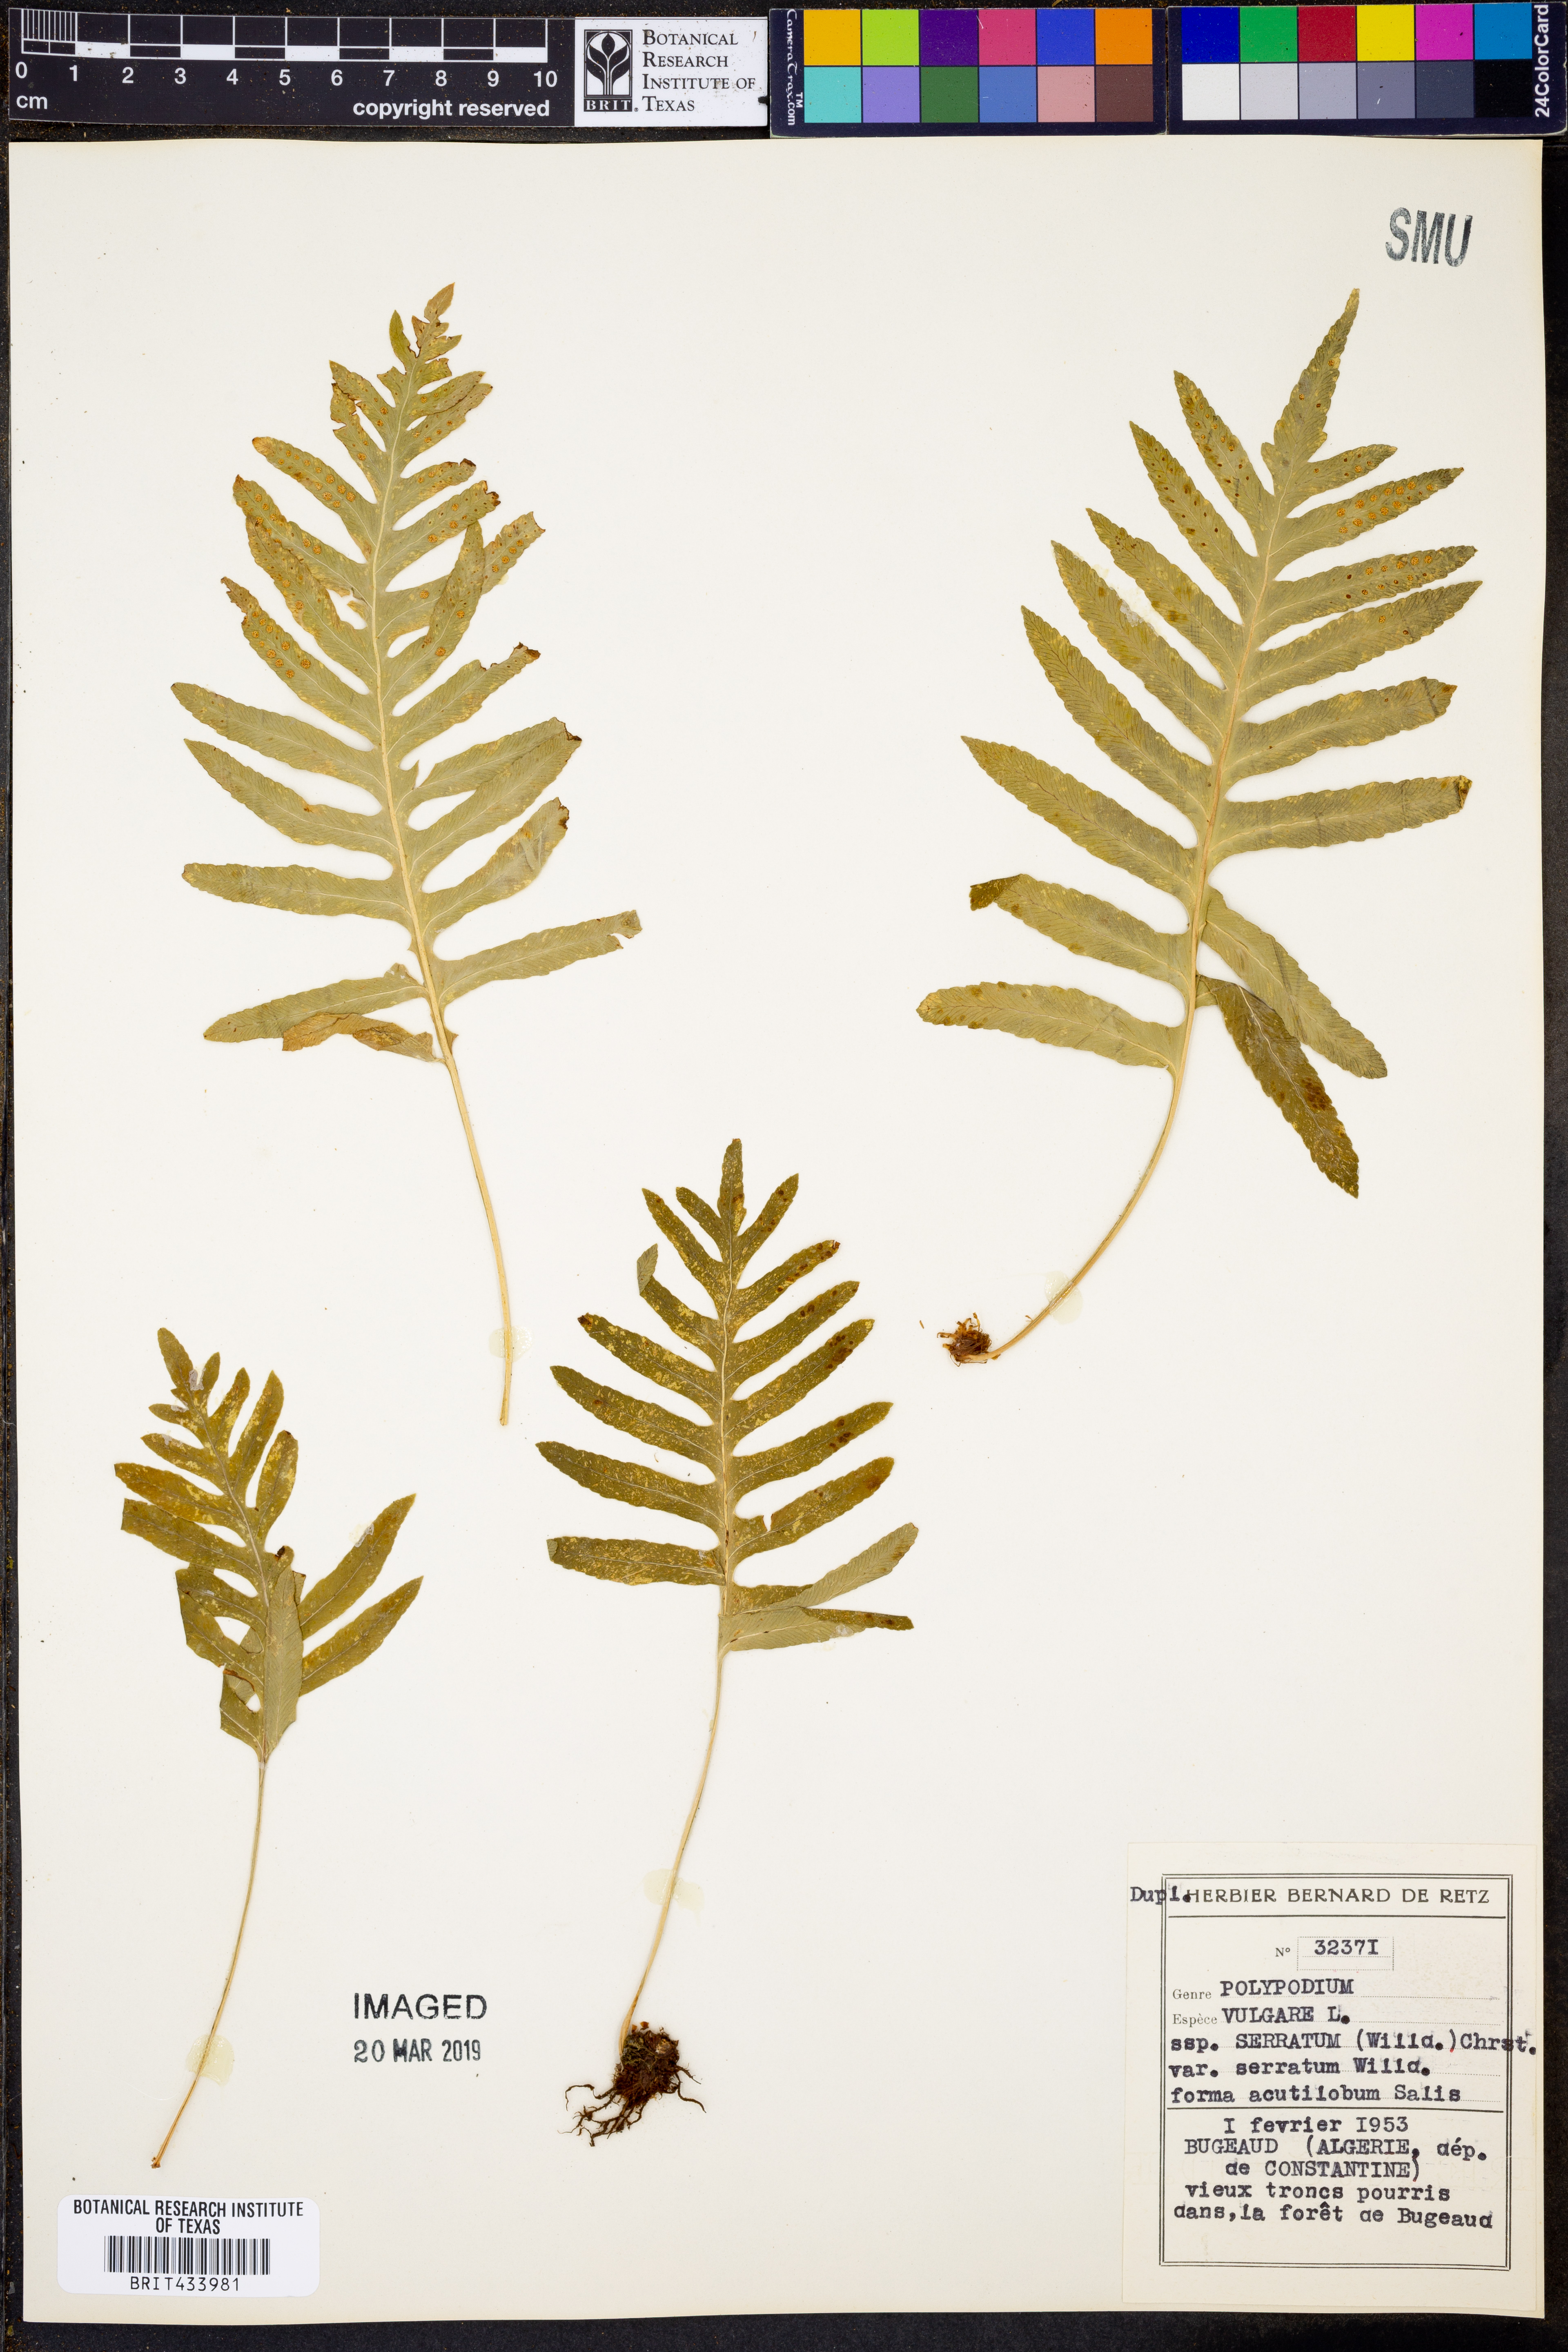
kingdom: Plantae
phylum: Tracheophyta
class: Polypodiopsida
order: Polypodiales
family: Polypodiaceae
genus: Polypodium
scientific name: Polypodium cambricum
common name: Southern polypody
